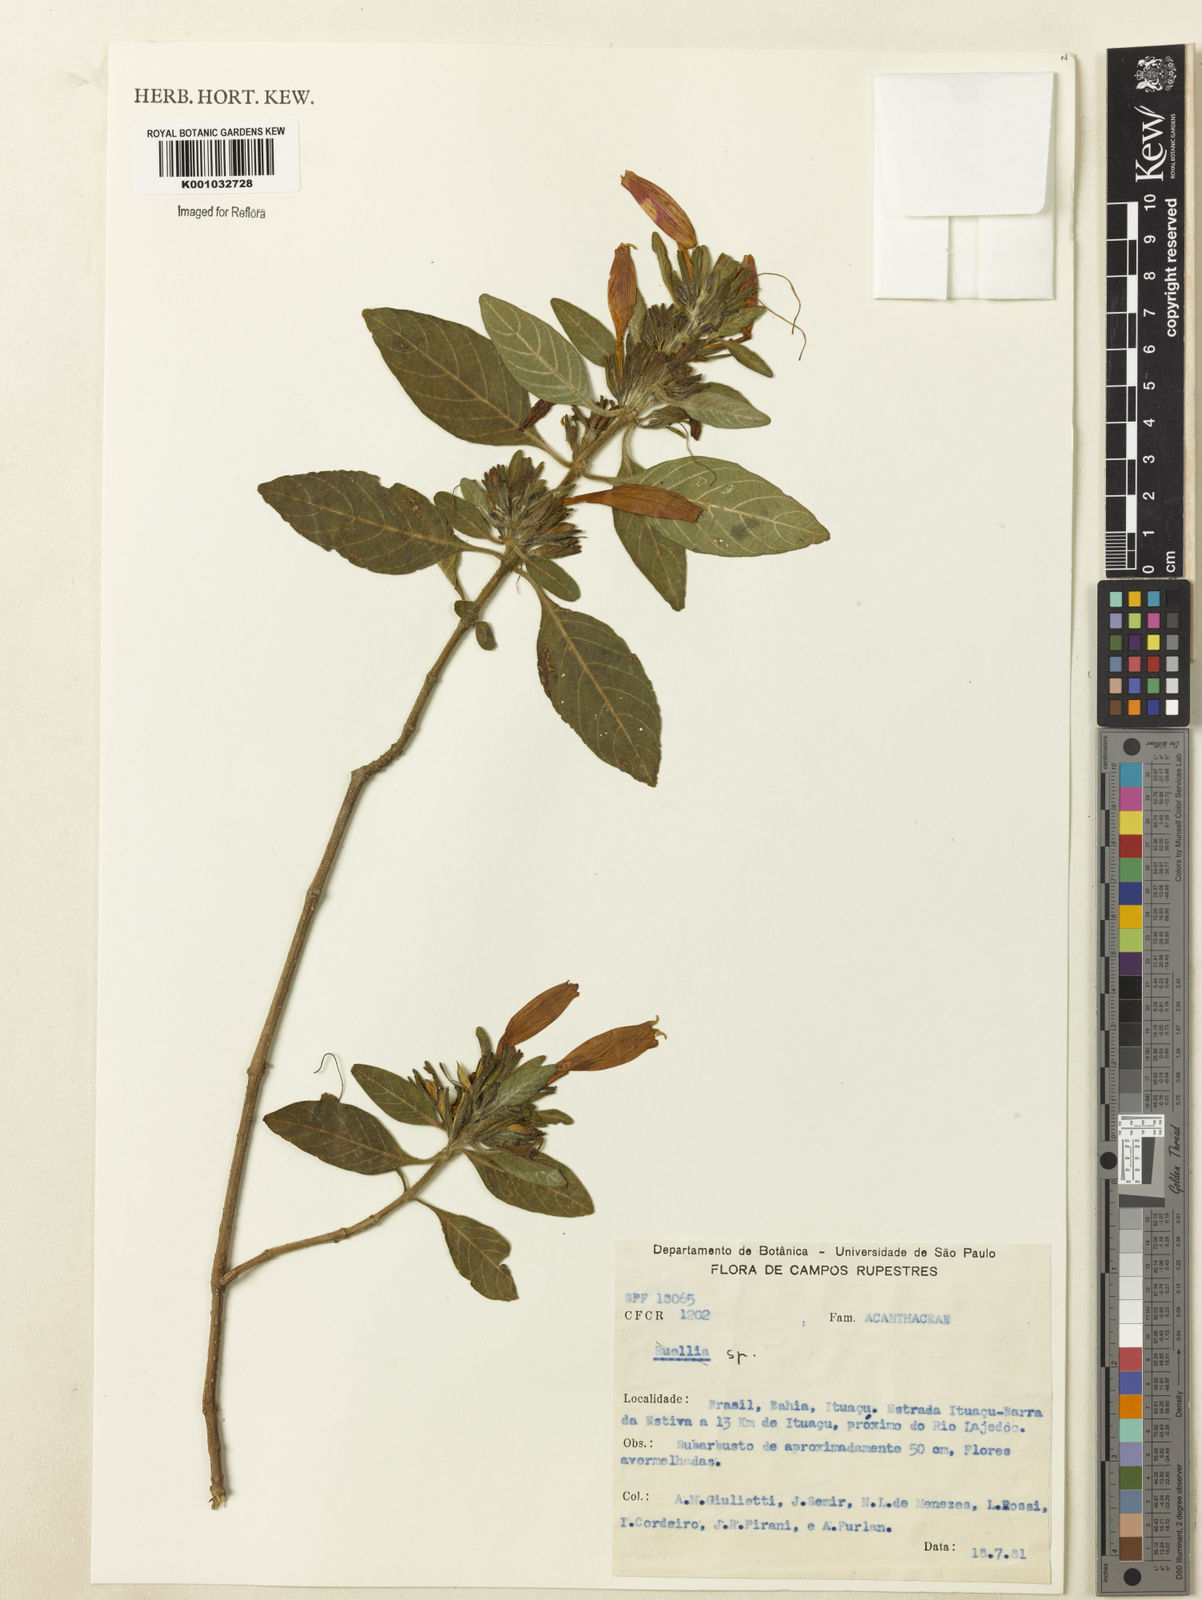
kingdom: Plantae
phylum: Tracheophyta
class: Magnoliopsida
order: Lamiales
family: Acanthaceae
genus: Ruellia
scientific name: Ruellia
